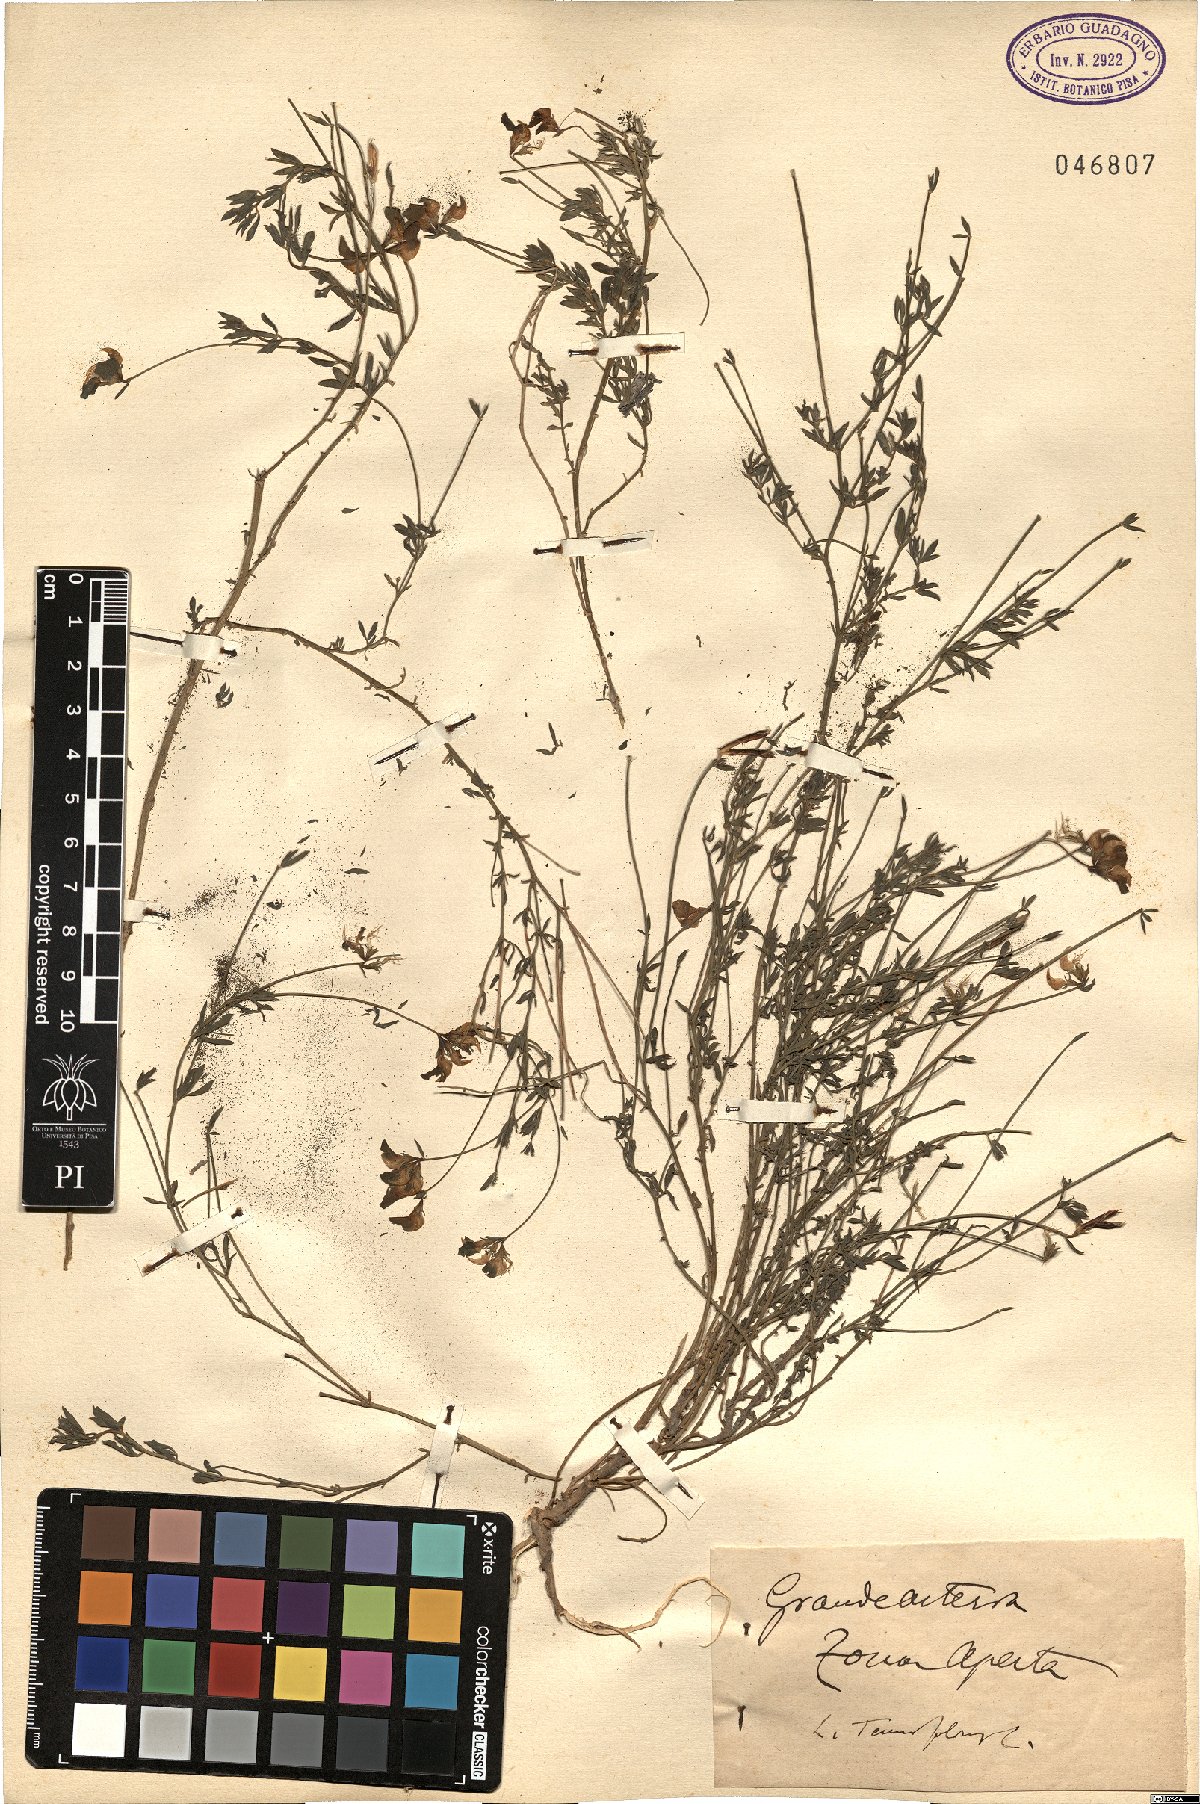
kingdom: Plantae
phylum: Tracheophyta
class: Magnoliopsida
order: Fabales
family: Fabaceae
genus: Lotus
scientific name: Lotus corniculatus
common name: Common bird's-foot-trefoil
